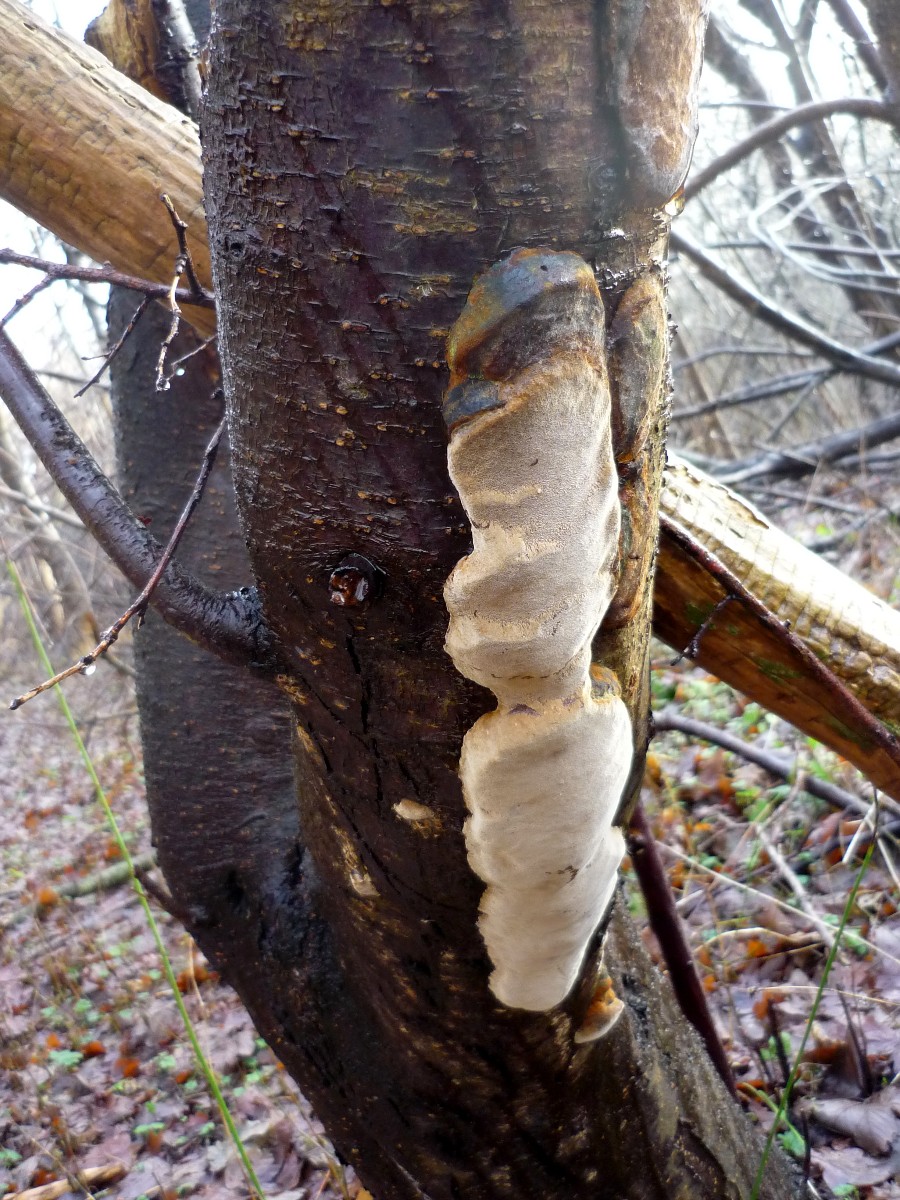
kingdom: Fungi
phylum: Basidiomycota
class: Agaricomycetes
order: Hymenochaetales
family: Hymenochaetaceae
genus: Phellinus
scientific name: Phellinus pomaceus
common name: blomme-ildporesvamp
